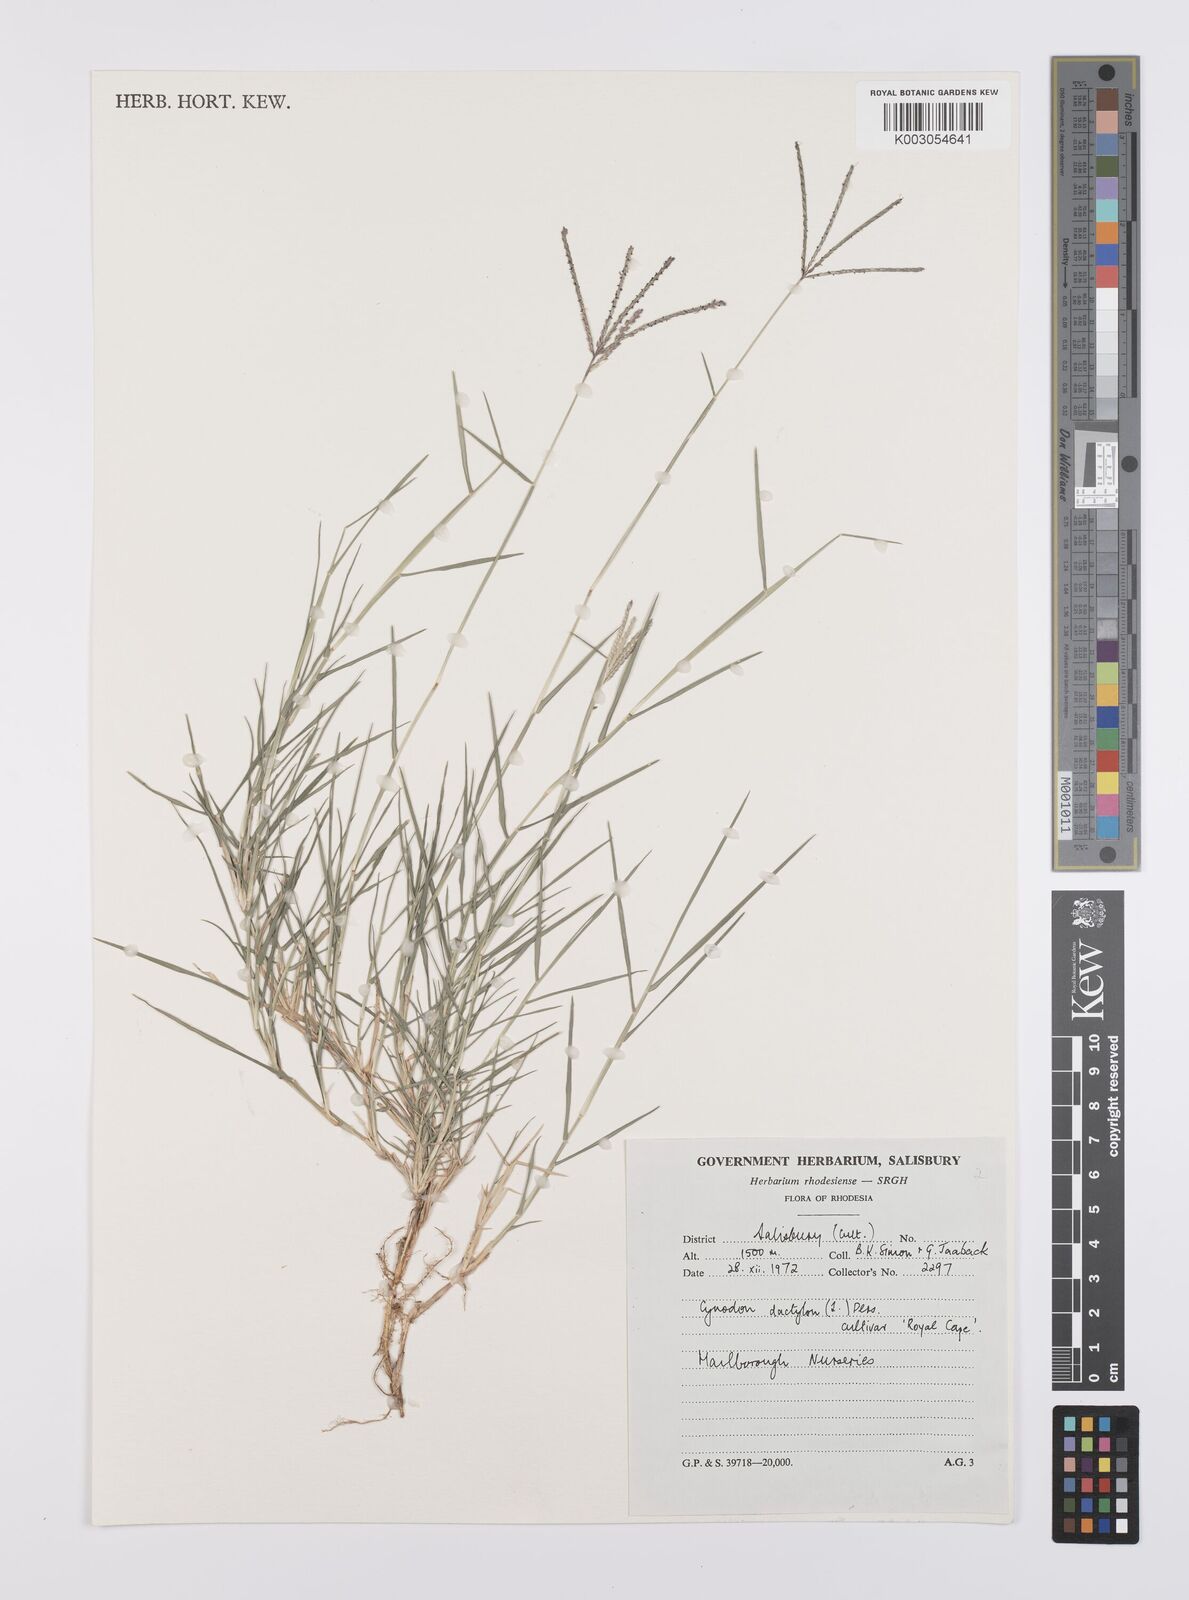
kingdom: Plantae
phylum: Tracheophyta
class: Liliopsida
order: Poales
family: Poaceae
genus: Cynodon
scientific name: Cynodon dactylon
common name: Bermuda grass
